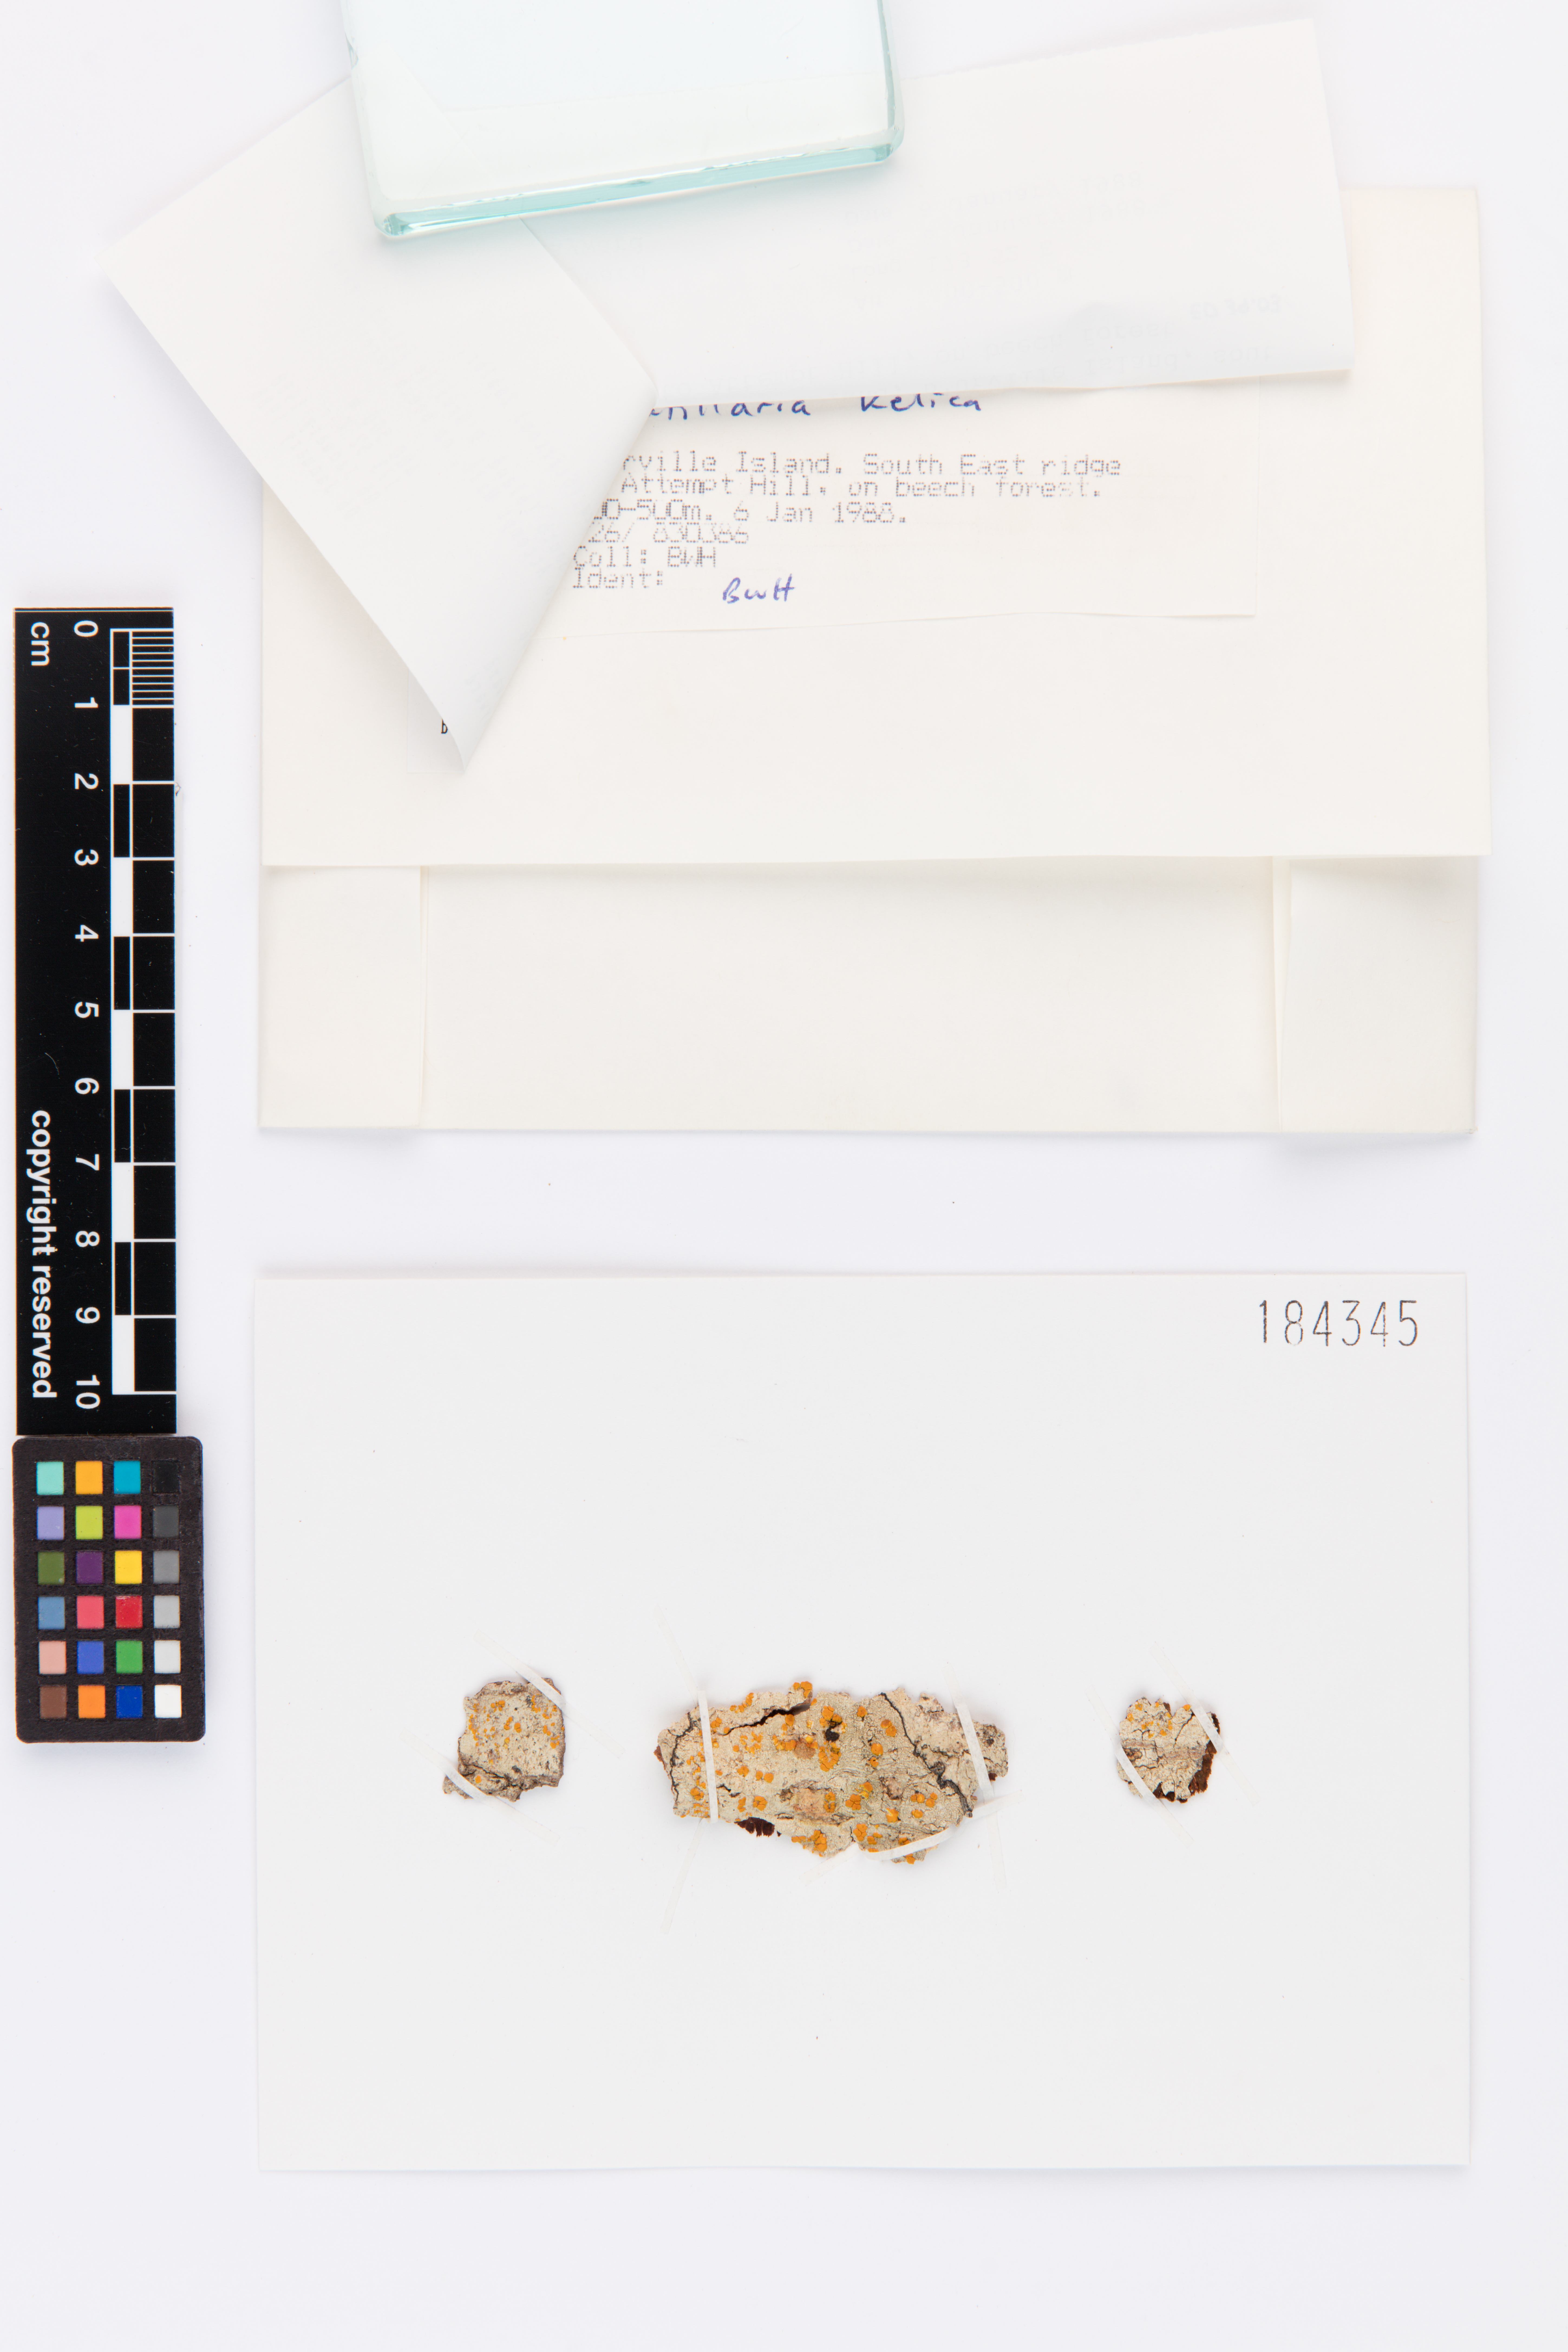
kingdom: Fungi
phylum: Ascomycota
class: Lecanoromycetes
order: Lecanorales
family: Ramalinaceae
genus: Stirtoniella
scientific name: Stirtoniella kelica
